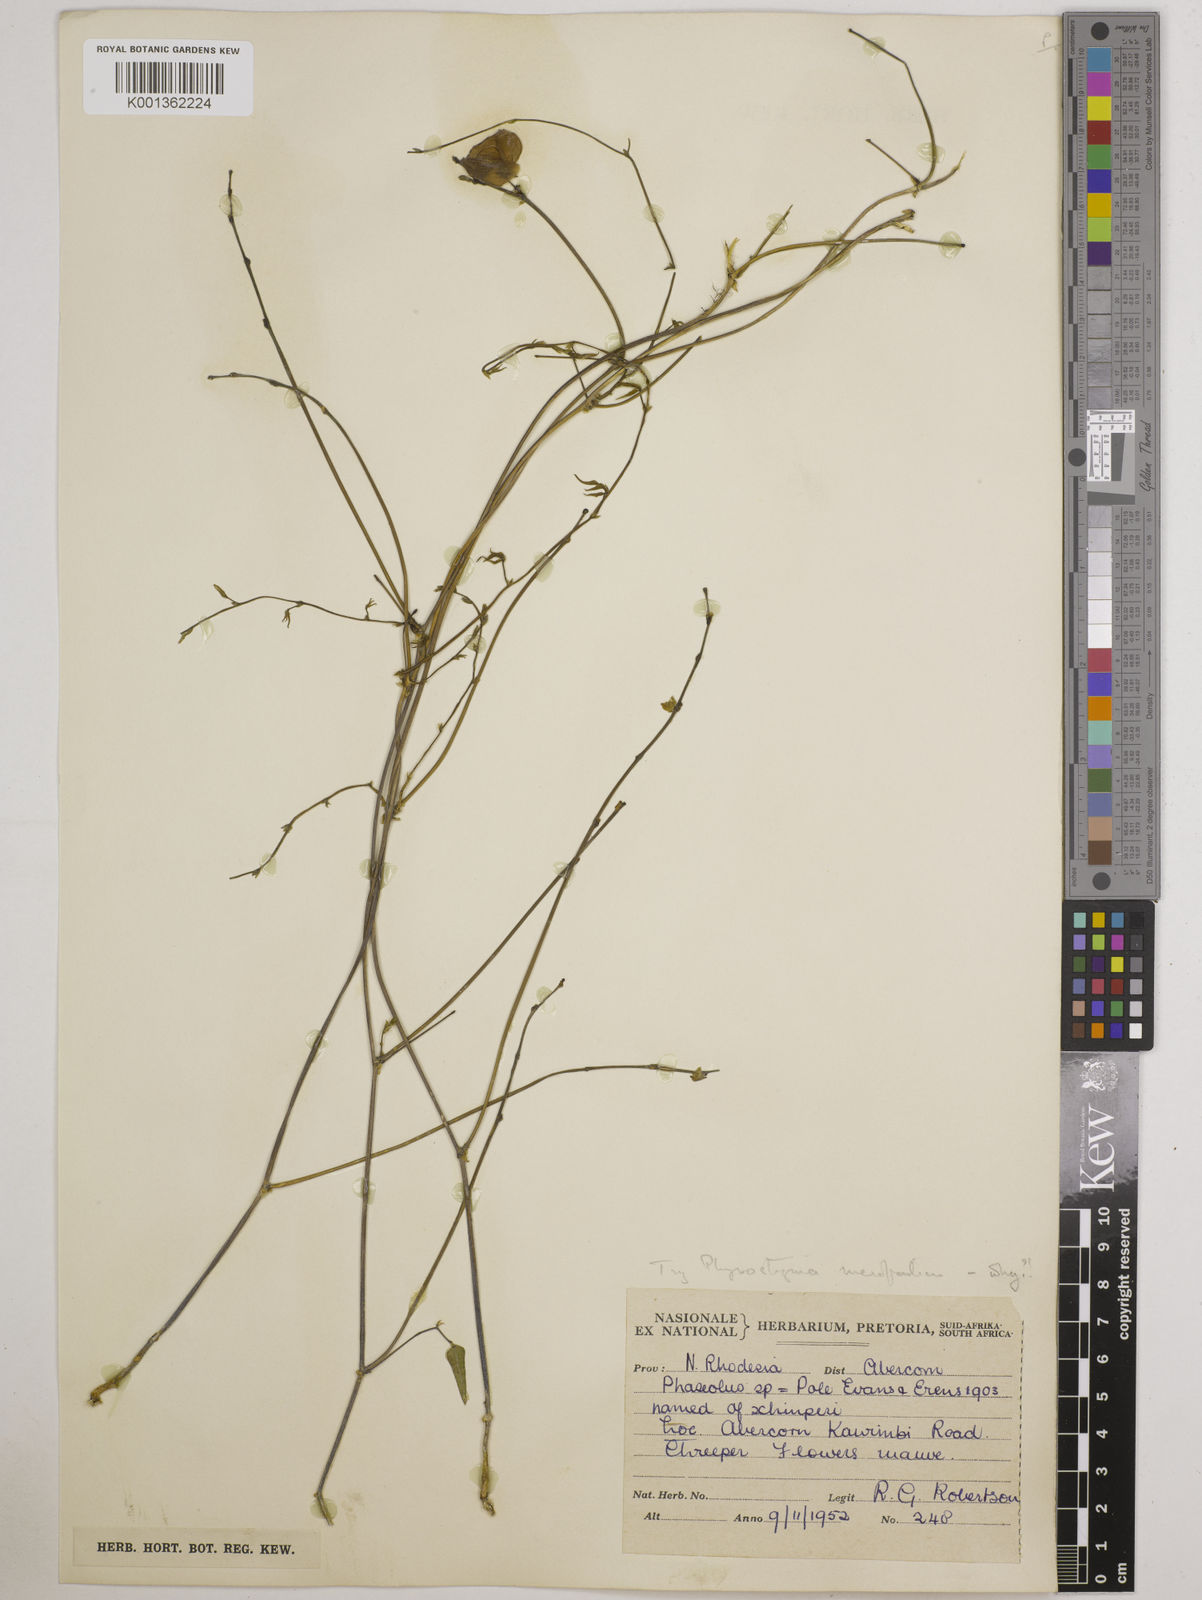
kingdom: Plantae
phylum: Tracheophyta
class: Magnoliopsida
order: Fabales
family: Fabaceae
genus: Wajira
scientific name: Wajira grahamiana
